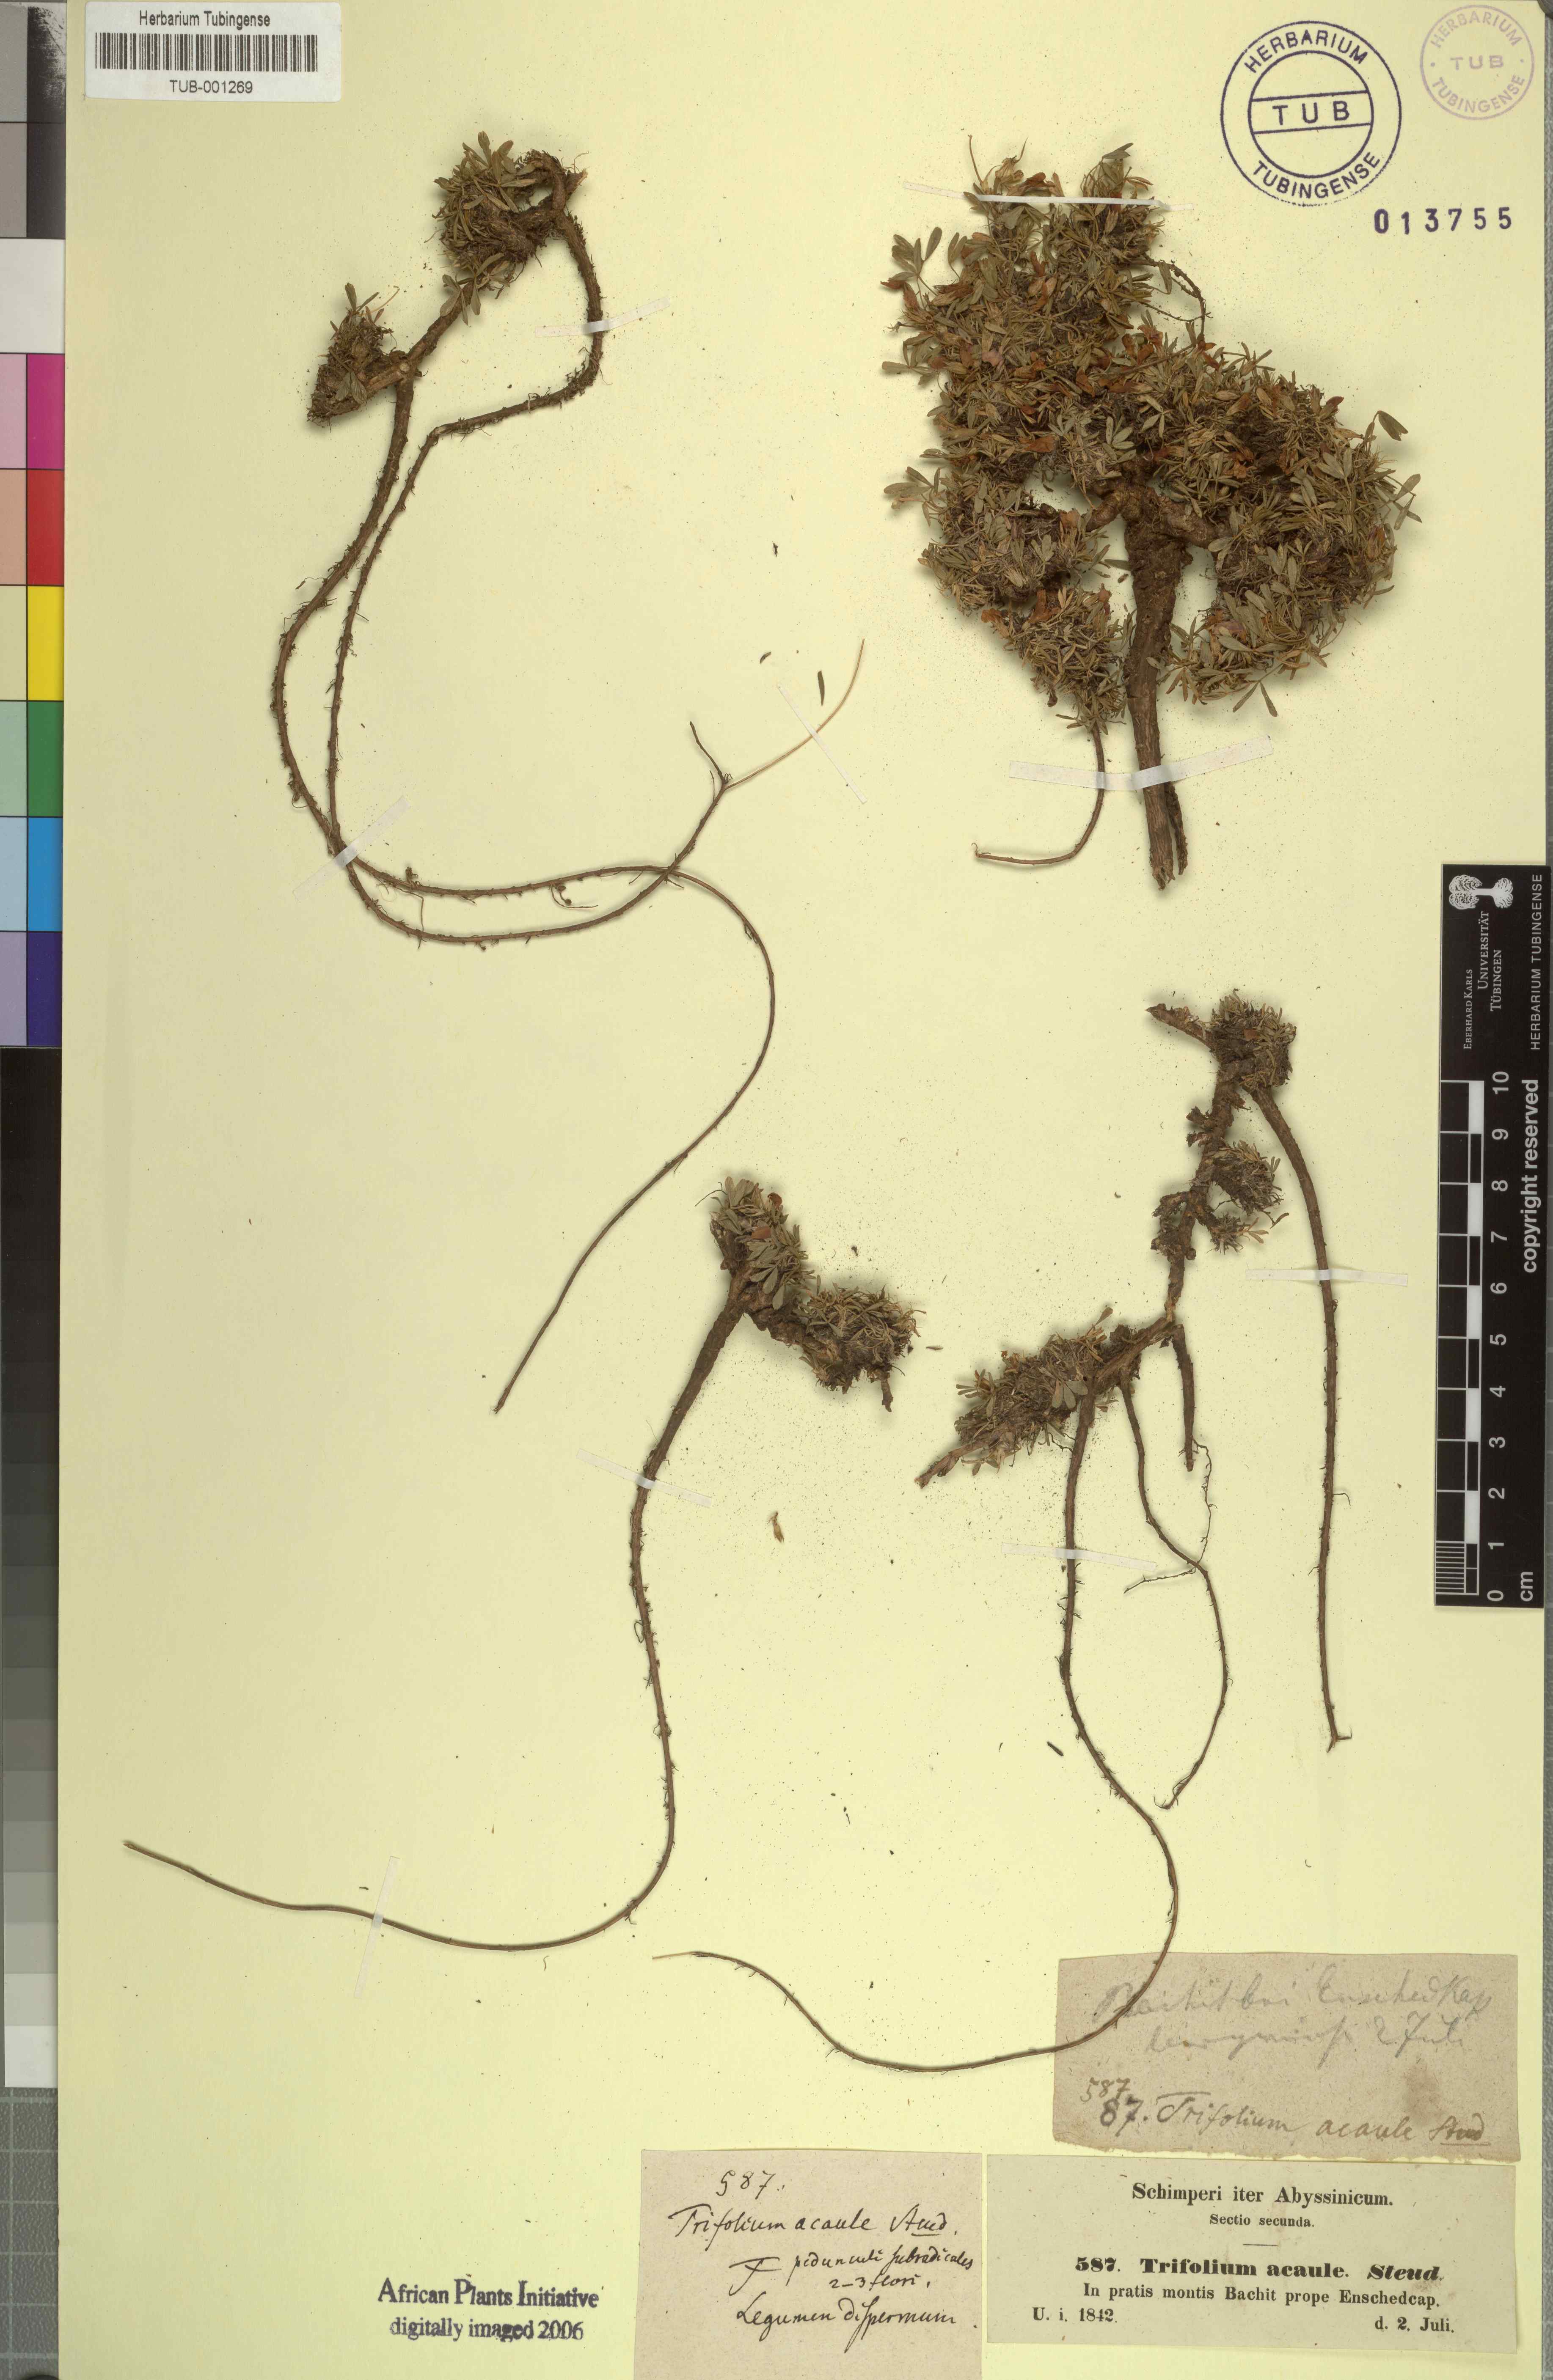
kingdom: Plantae
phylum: Tracheophyta
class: Magnoliopsida
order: Fabales
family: Fabaceae
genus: Trifolium
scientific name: Trifolium acaule
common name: Stemless clover
